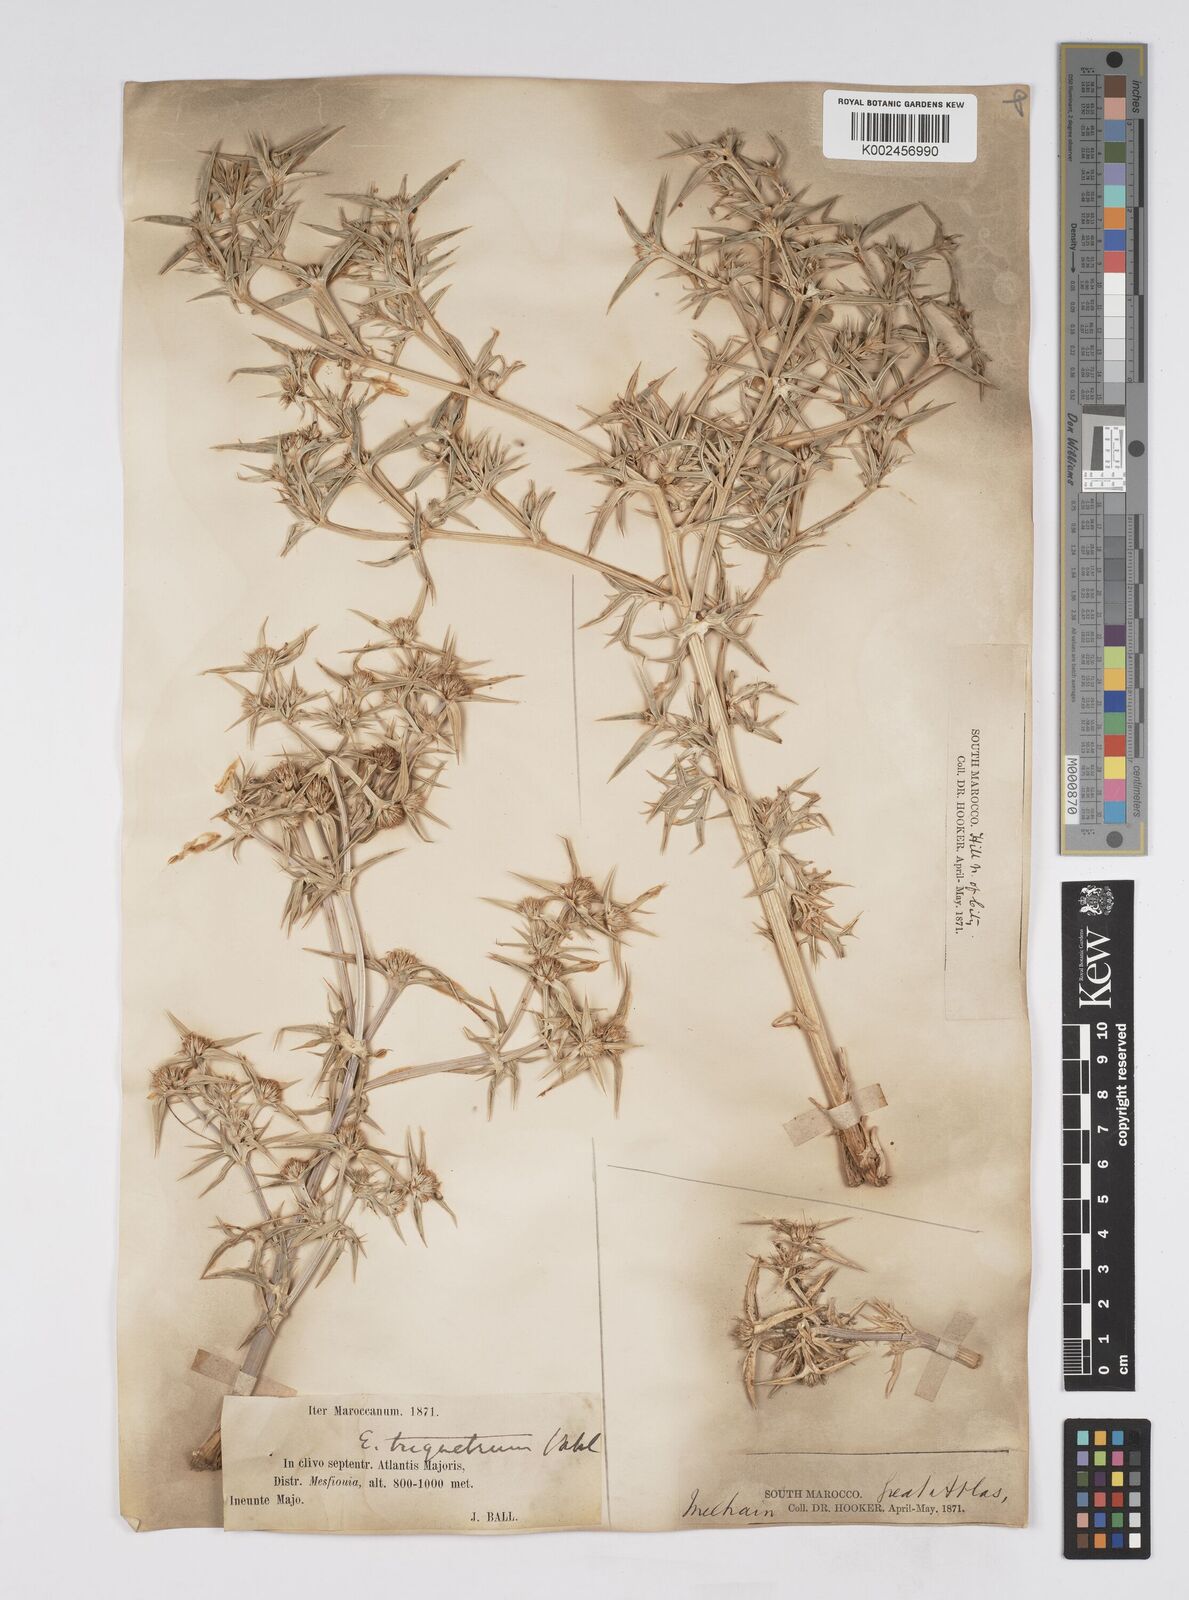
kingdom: Plantae
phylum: Tracheophyta
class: Magnoliopsida
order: Apiales
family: Apiaceae
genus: Eryngium
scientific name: Eryngium
